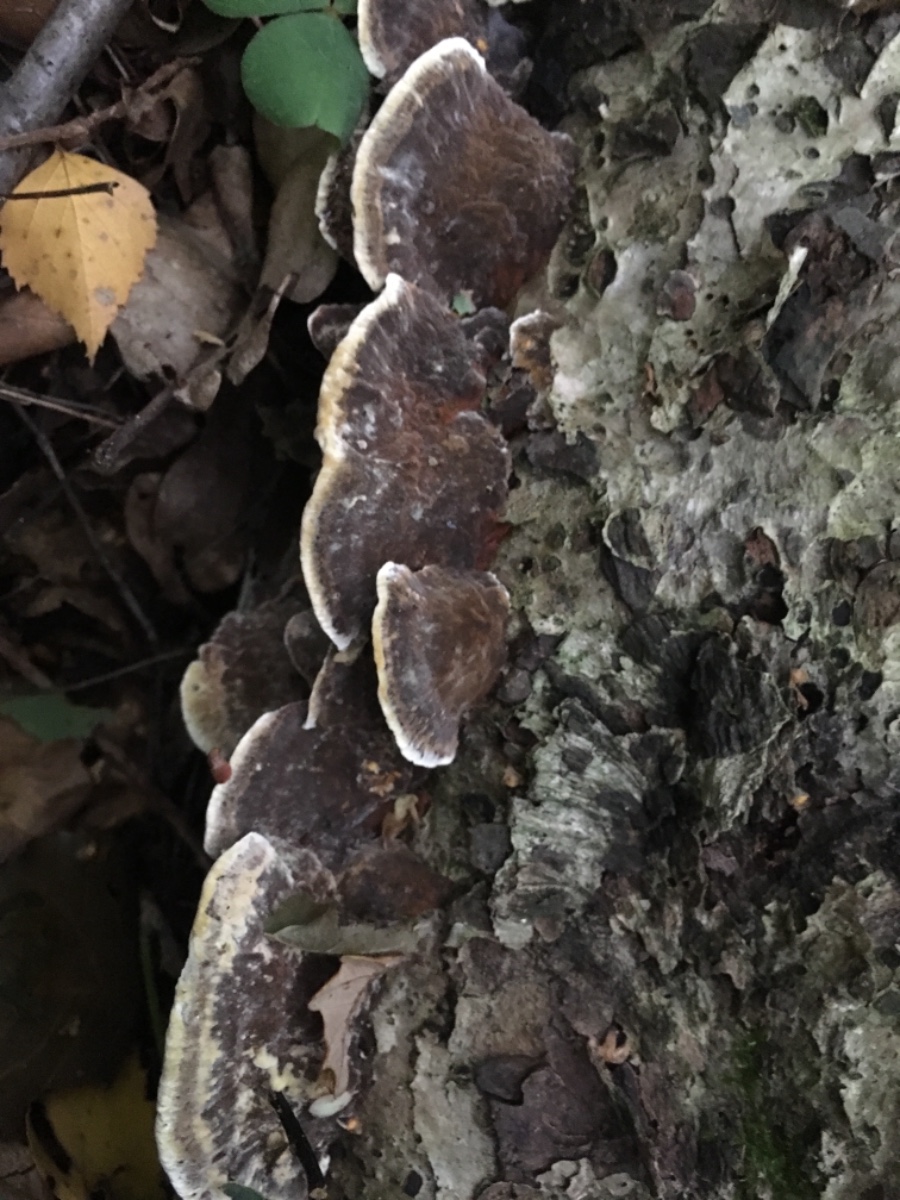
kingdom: Fungi
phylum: Basidiomycota
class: Agaricomycetes
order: Polyporales
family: Phanerochaetaceae
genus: Bjerkandera
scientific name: Bjerkandera adusta
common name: sveden sodporesvamp
